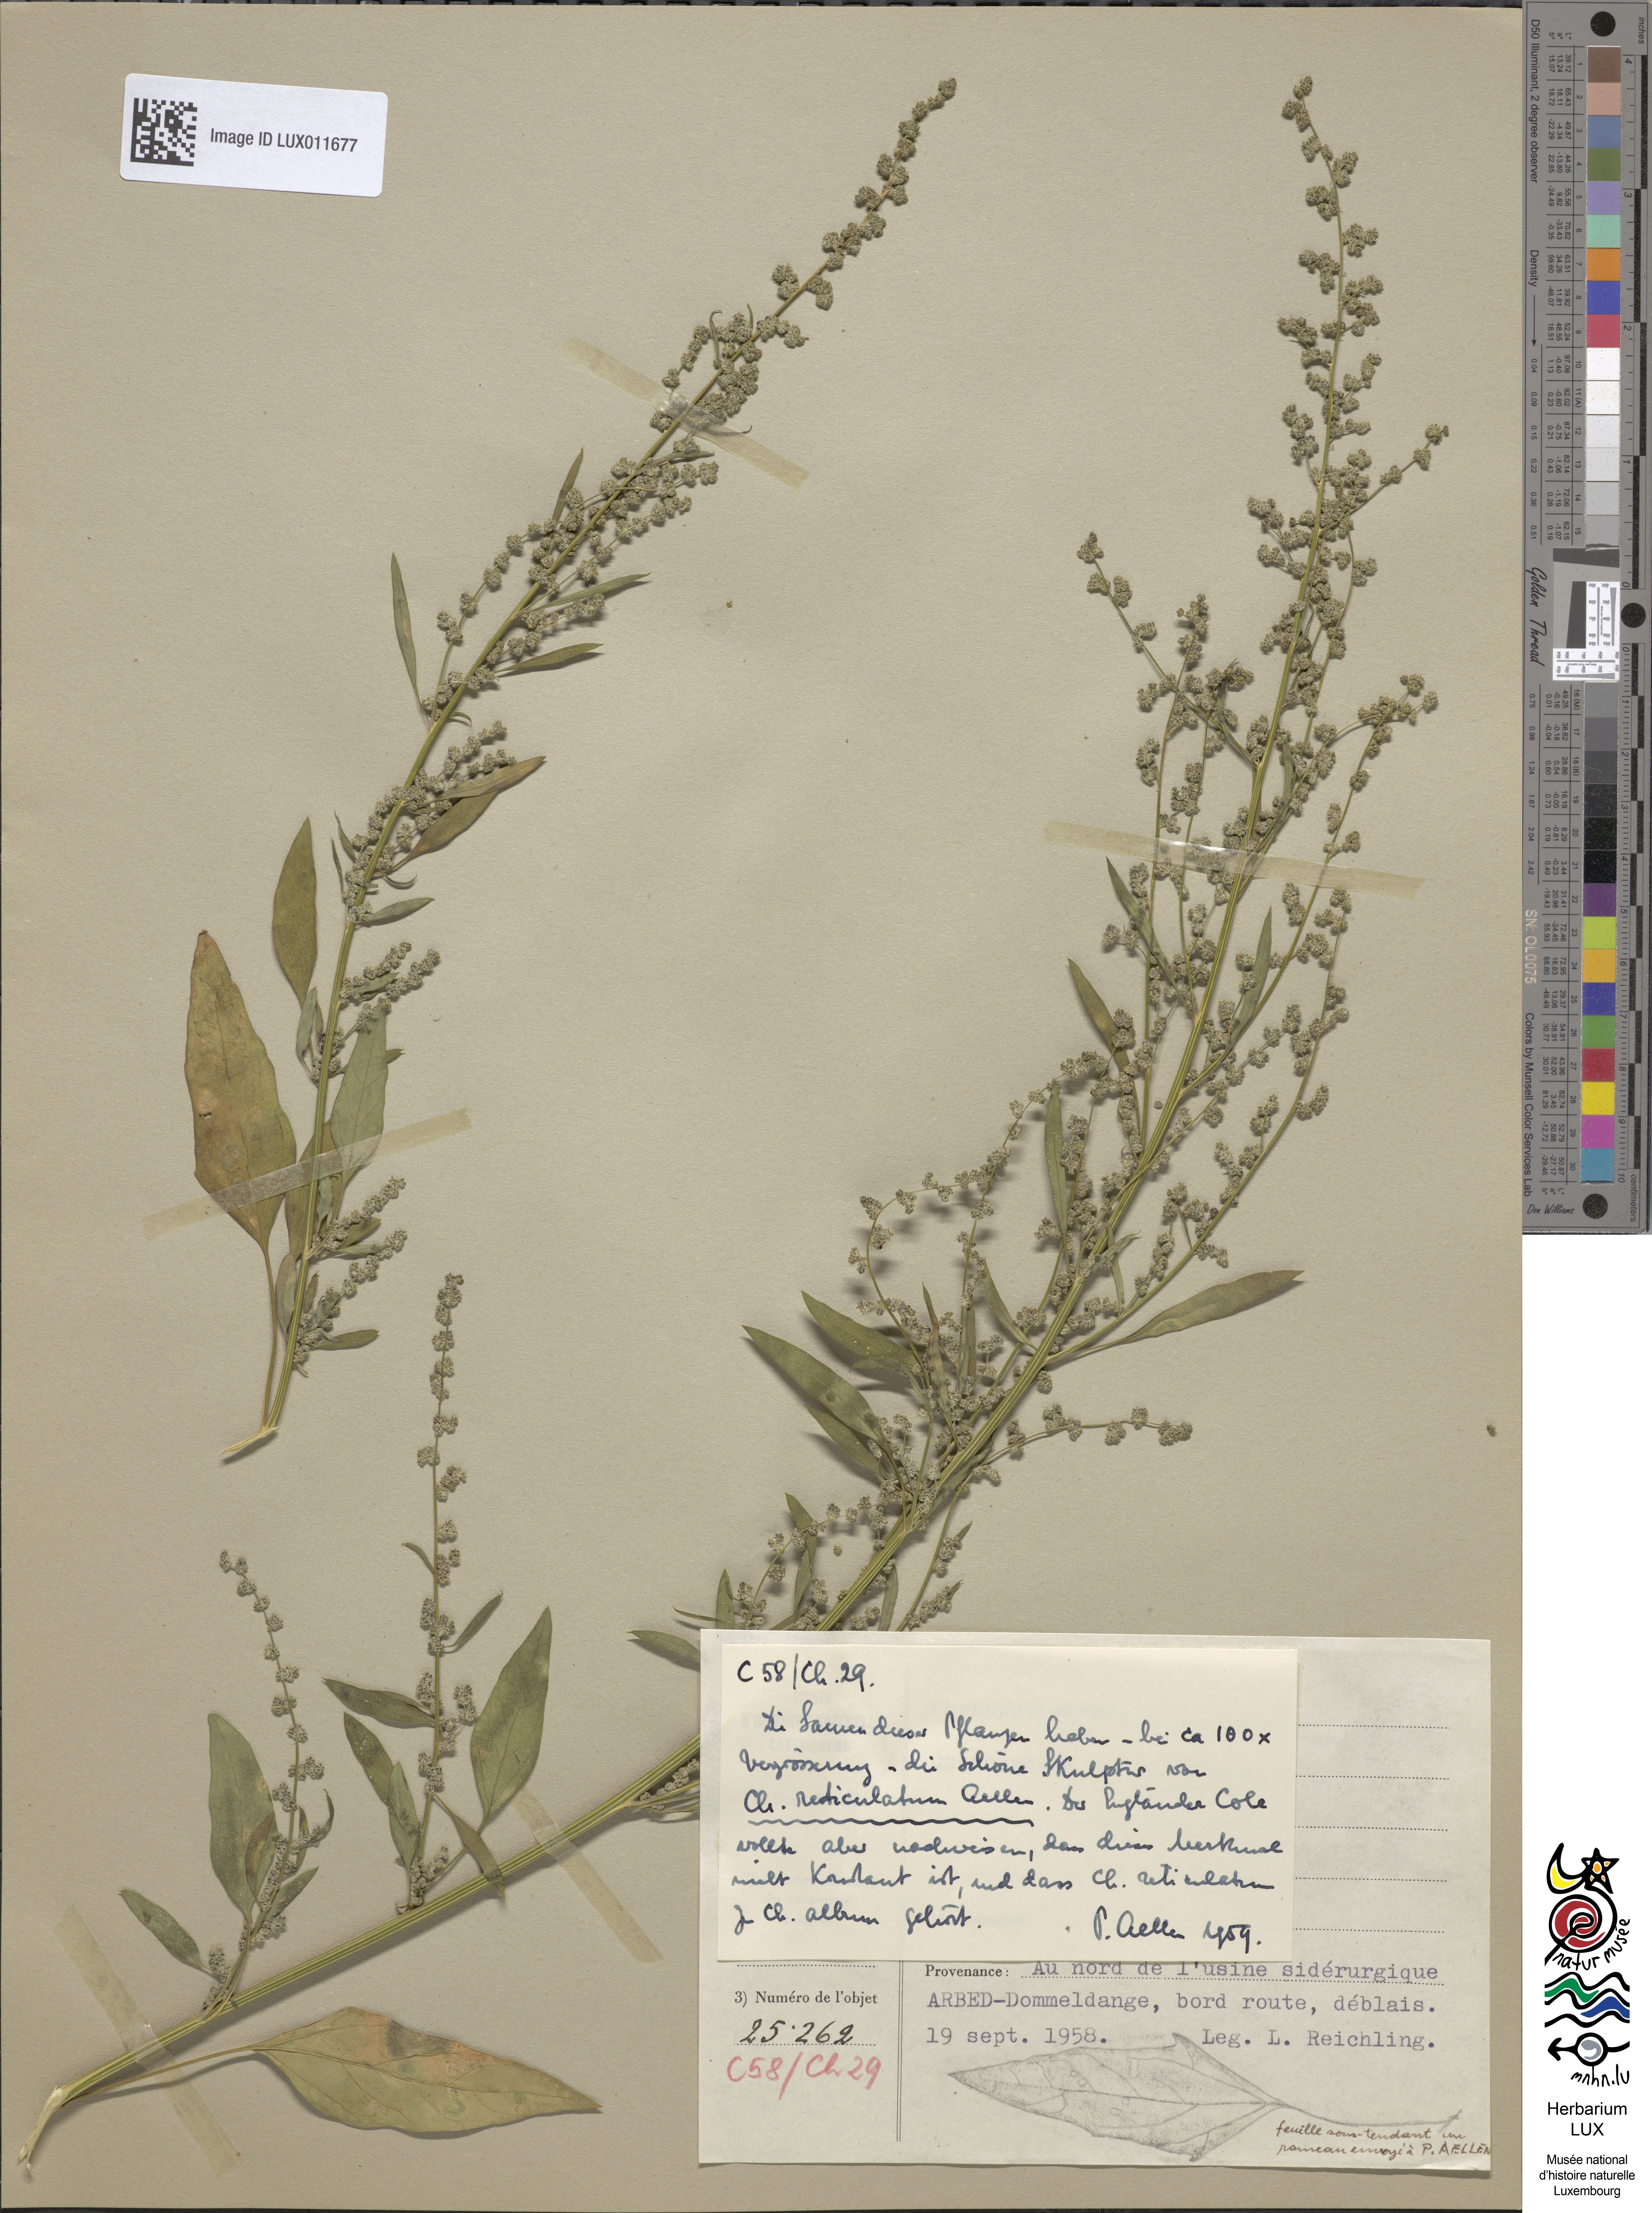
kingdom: Plantae
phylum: Tracheophyta
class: Magnoliopsida
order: Caryophyllales
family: Amaranthaceae
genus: Chenopodium
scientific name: Chenopodium album
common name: Fat-hen
